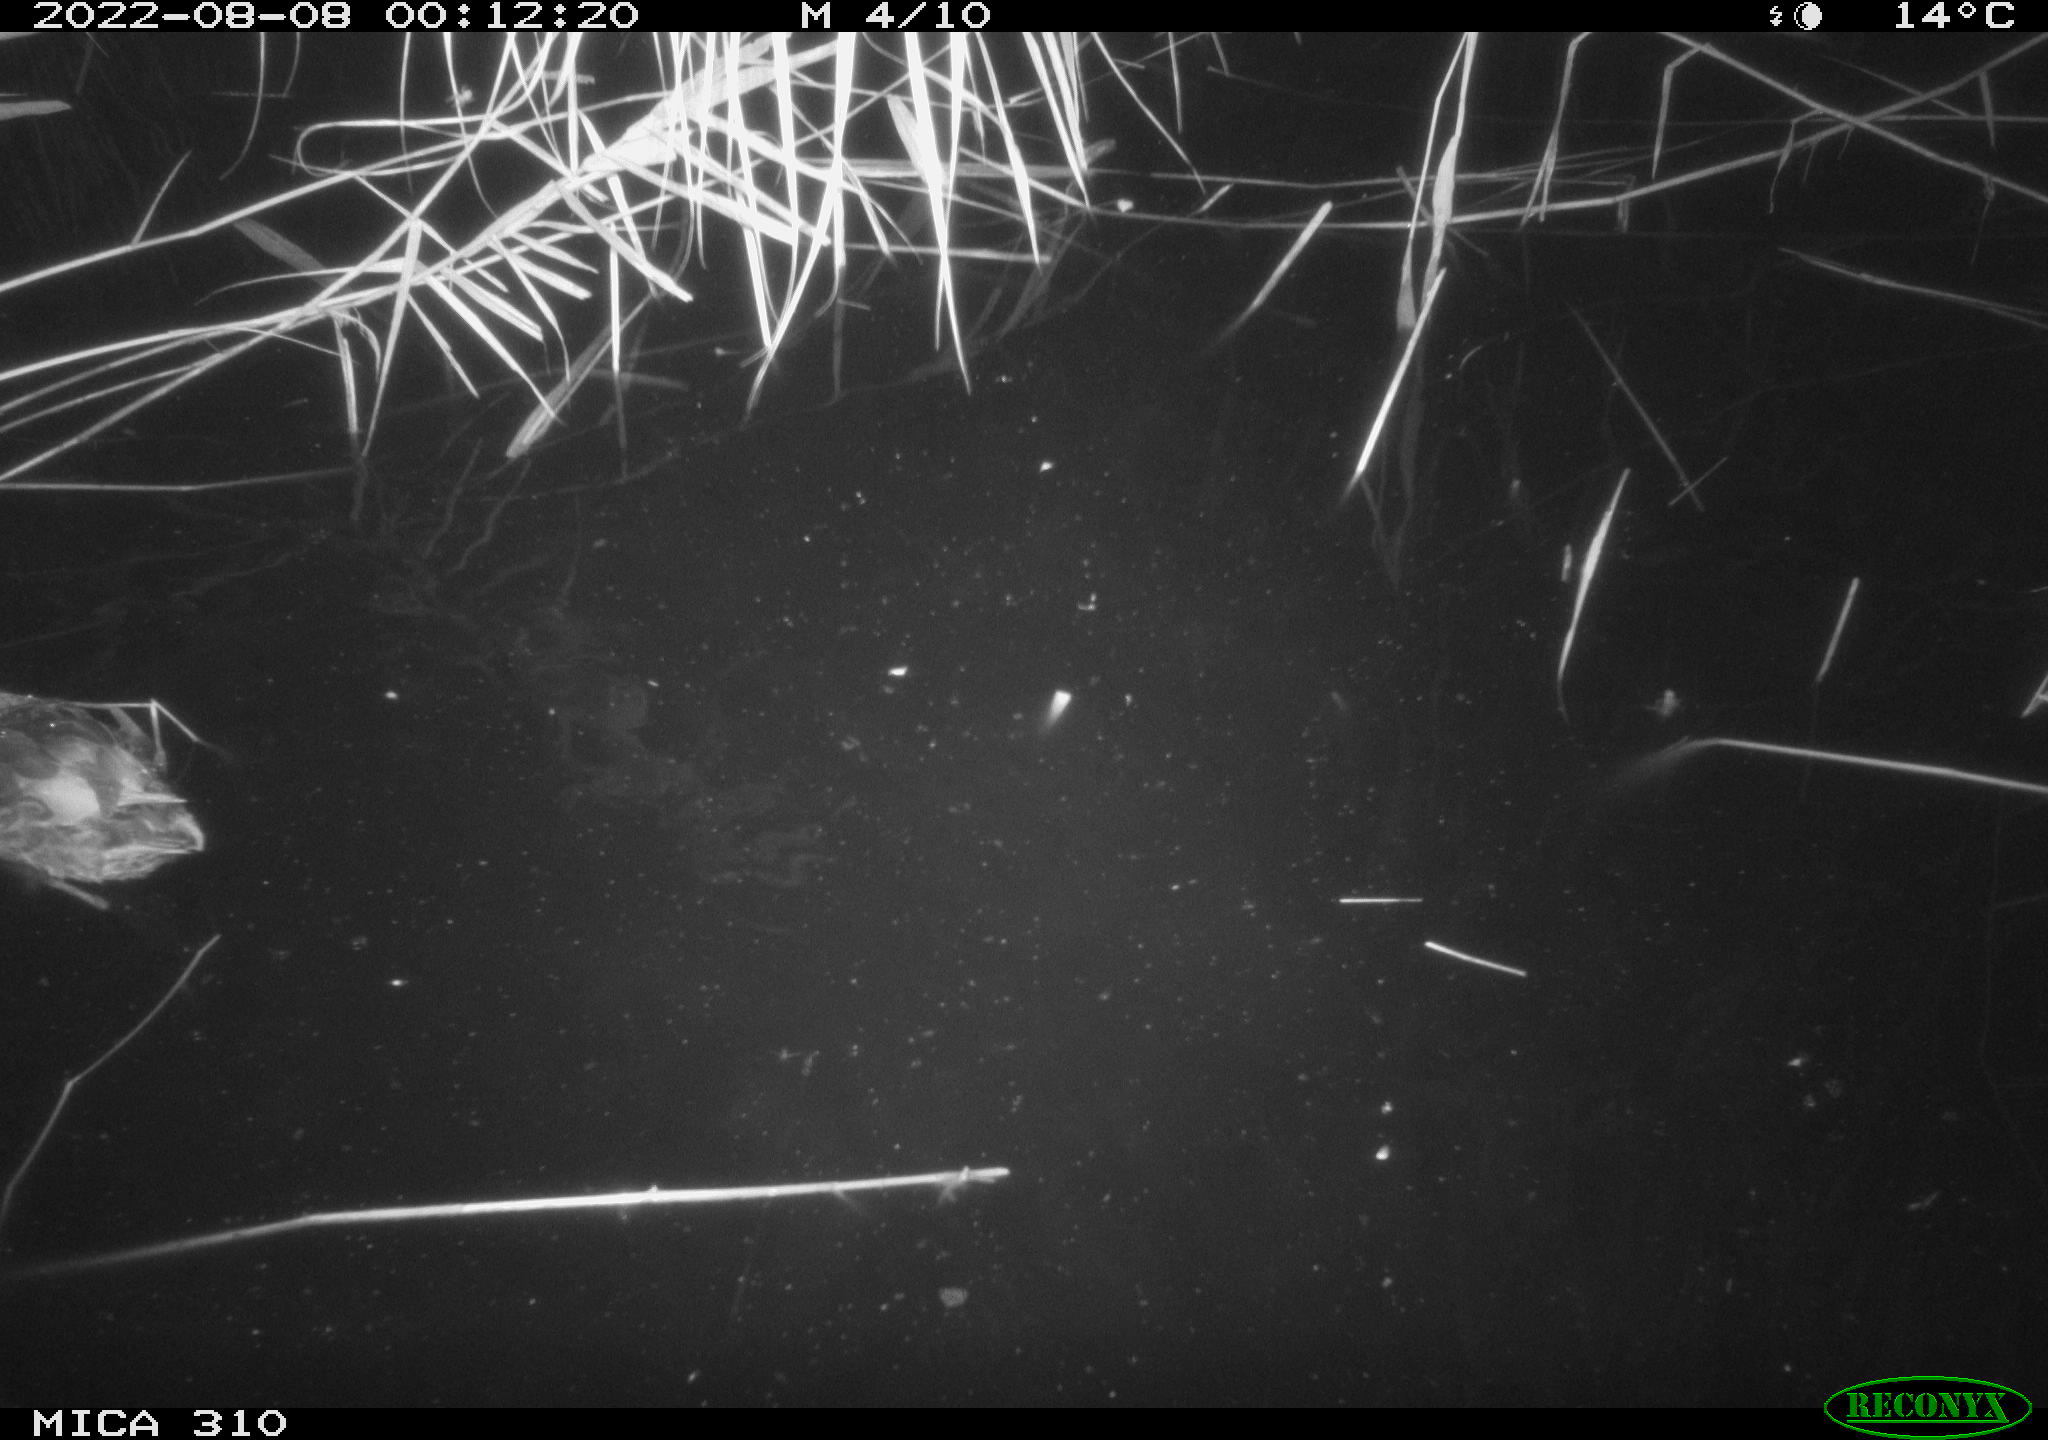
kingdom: Animalia
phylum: Chordata
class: Aves
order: Anseriformes
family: Anatidae
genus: Anas
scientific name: Anas platyrhynchos
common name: Mallard
